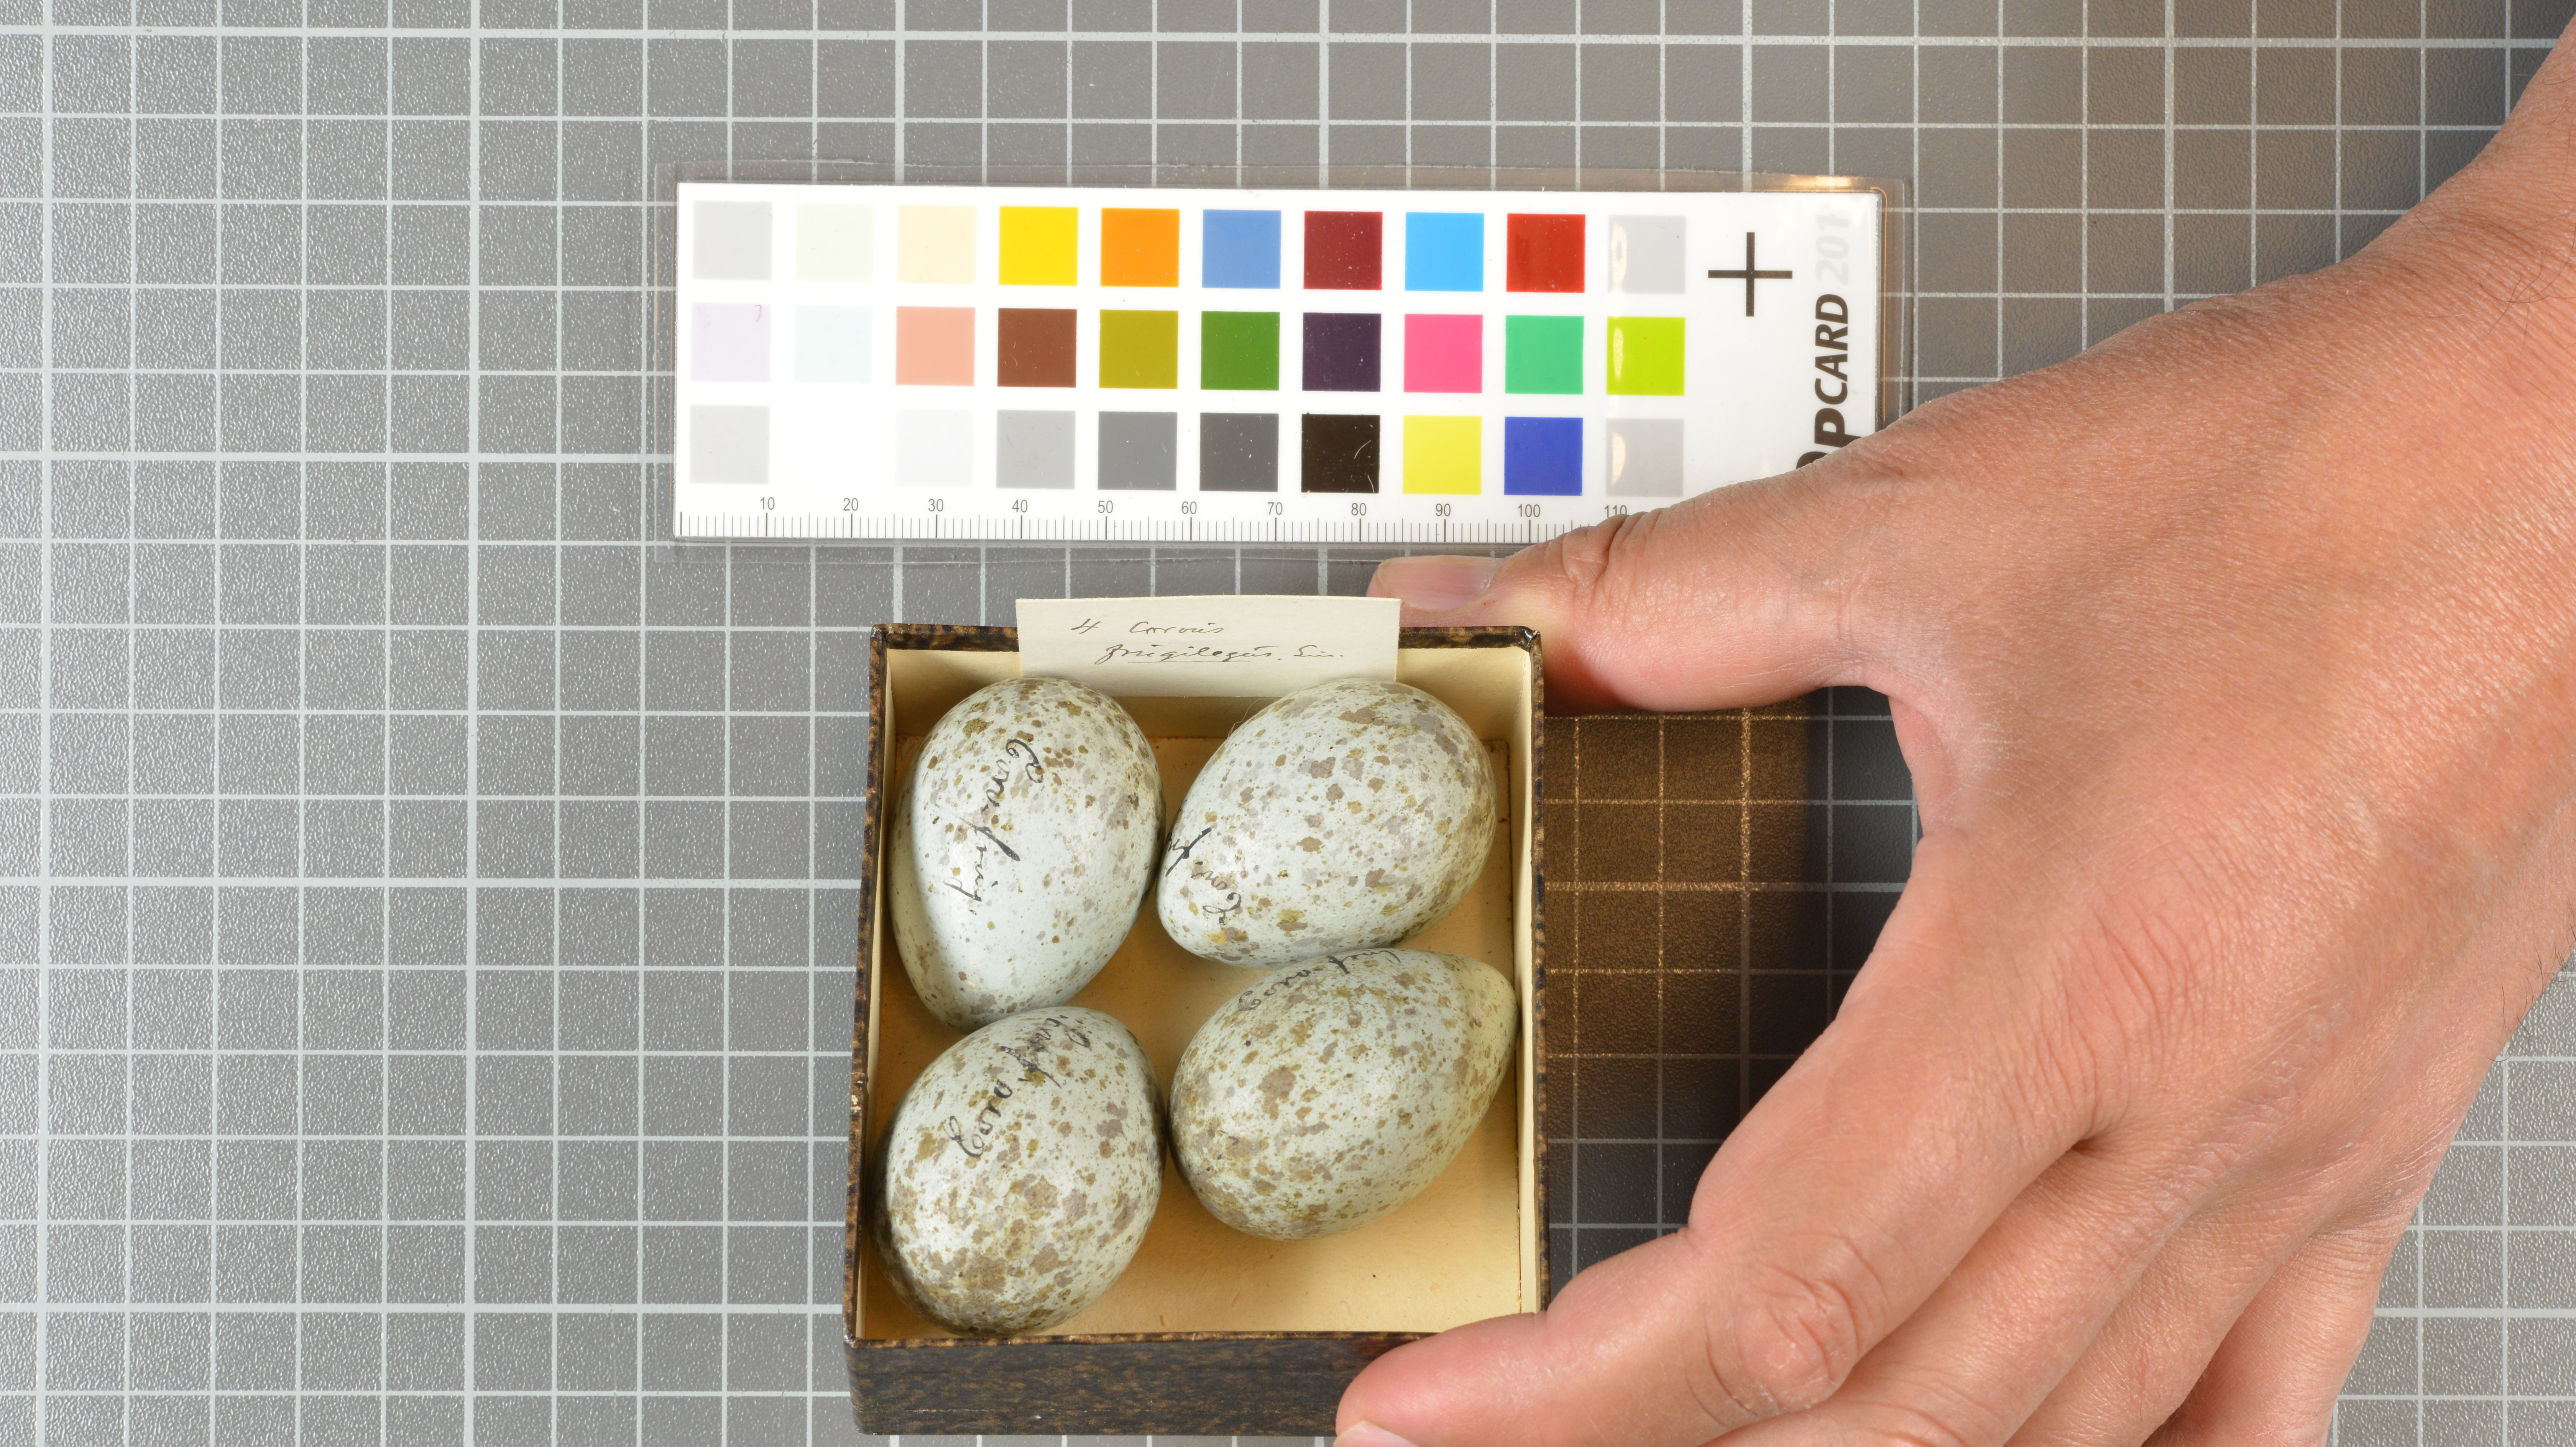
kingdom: Animalia
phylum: Chordata
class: Aves
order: Passeriformes
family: Corvidae
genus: Corvus
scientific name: Corvus frugilegus
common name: Rook
